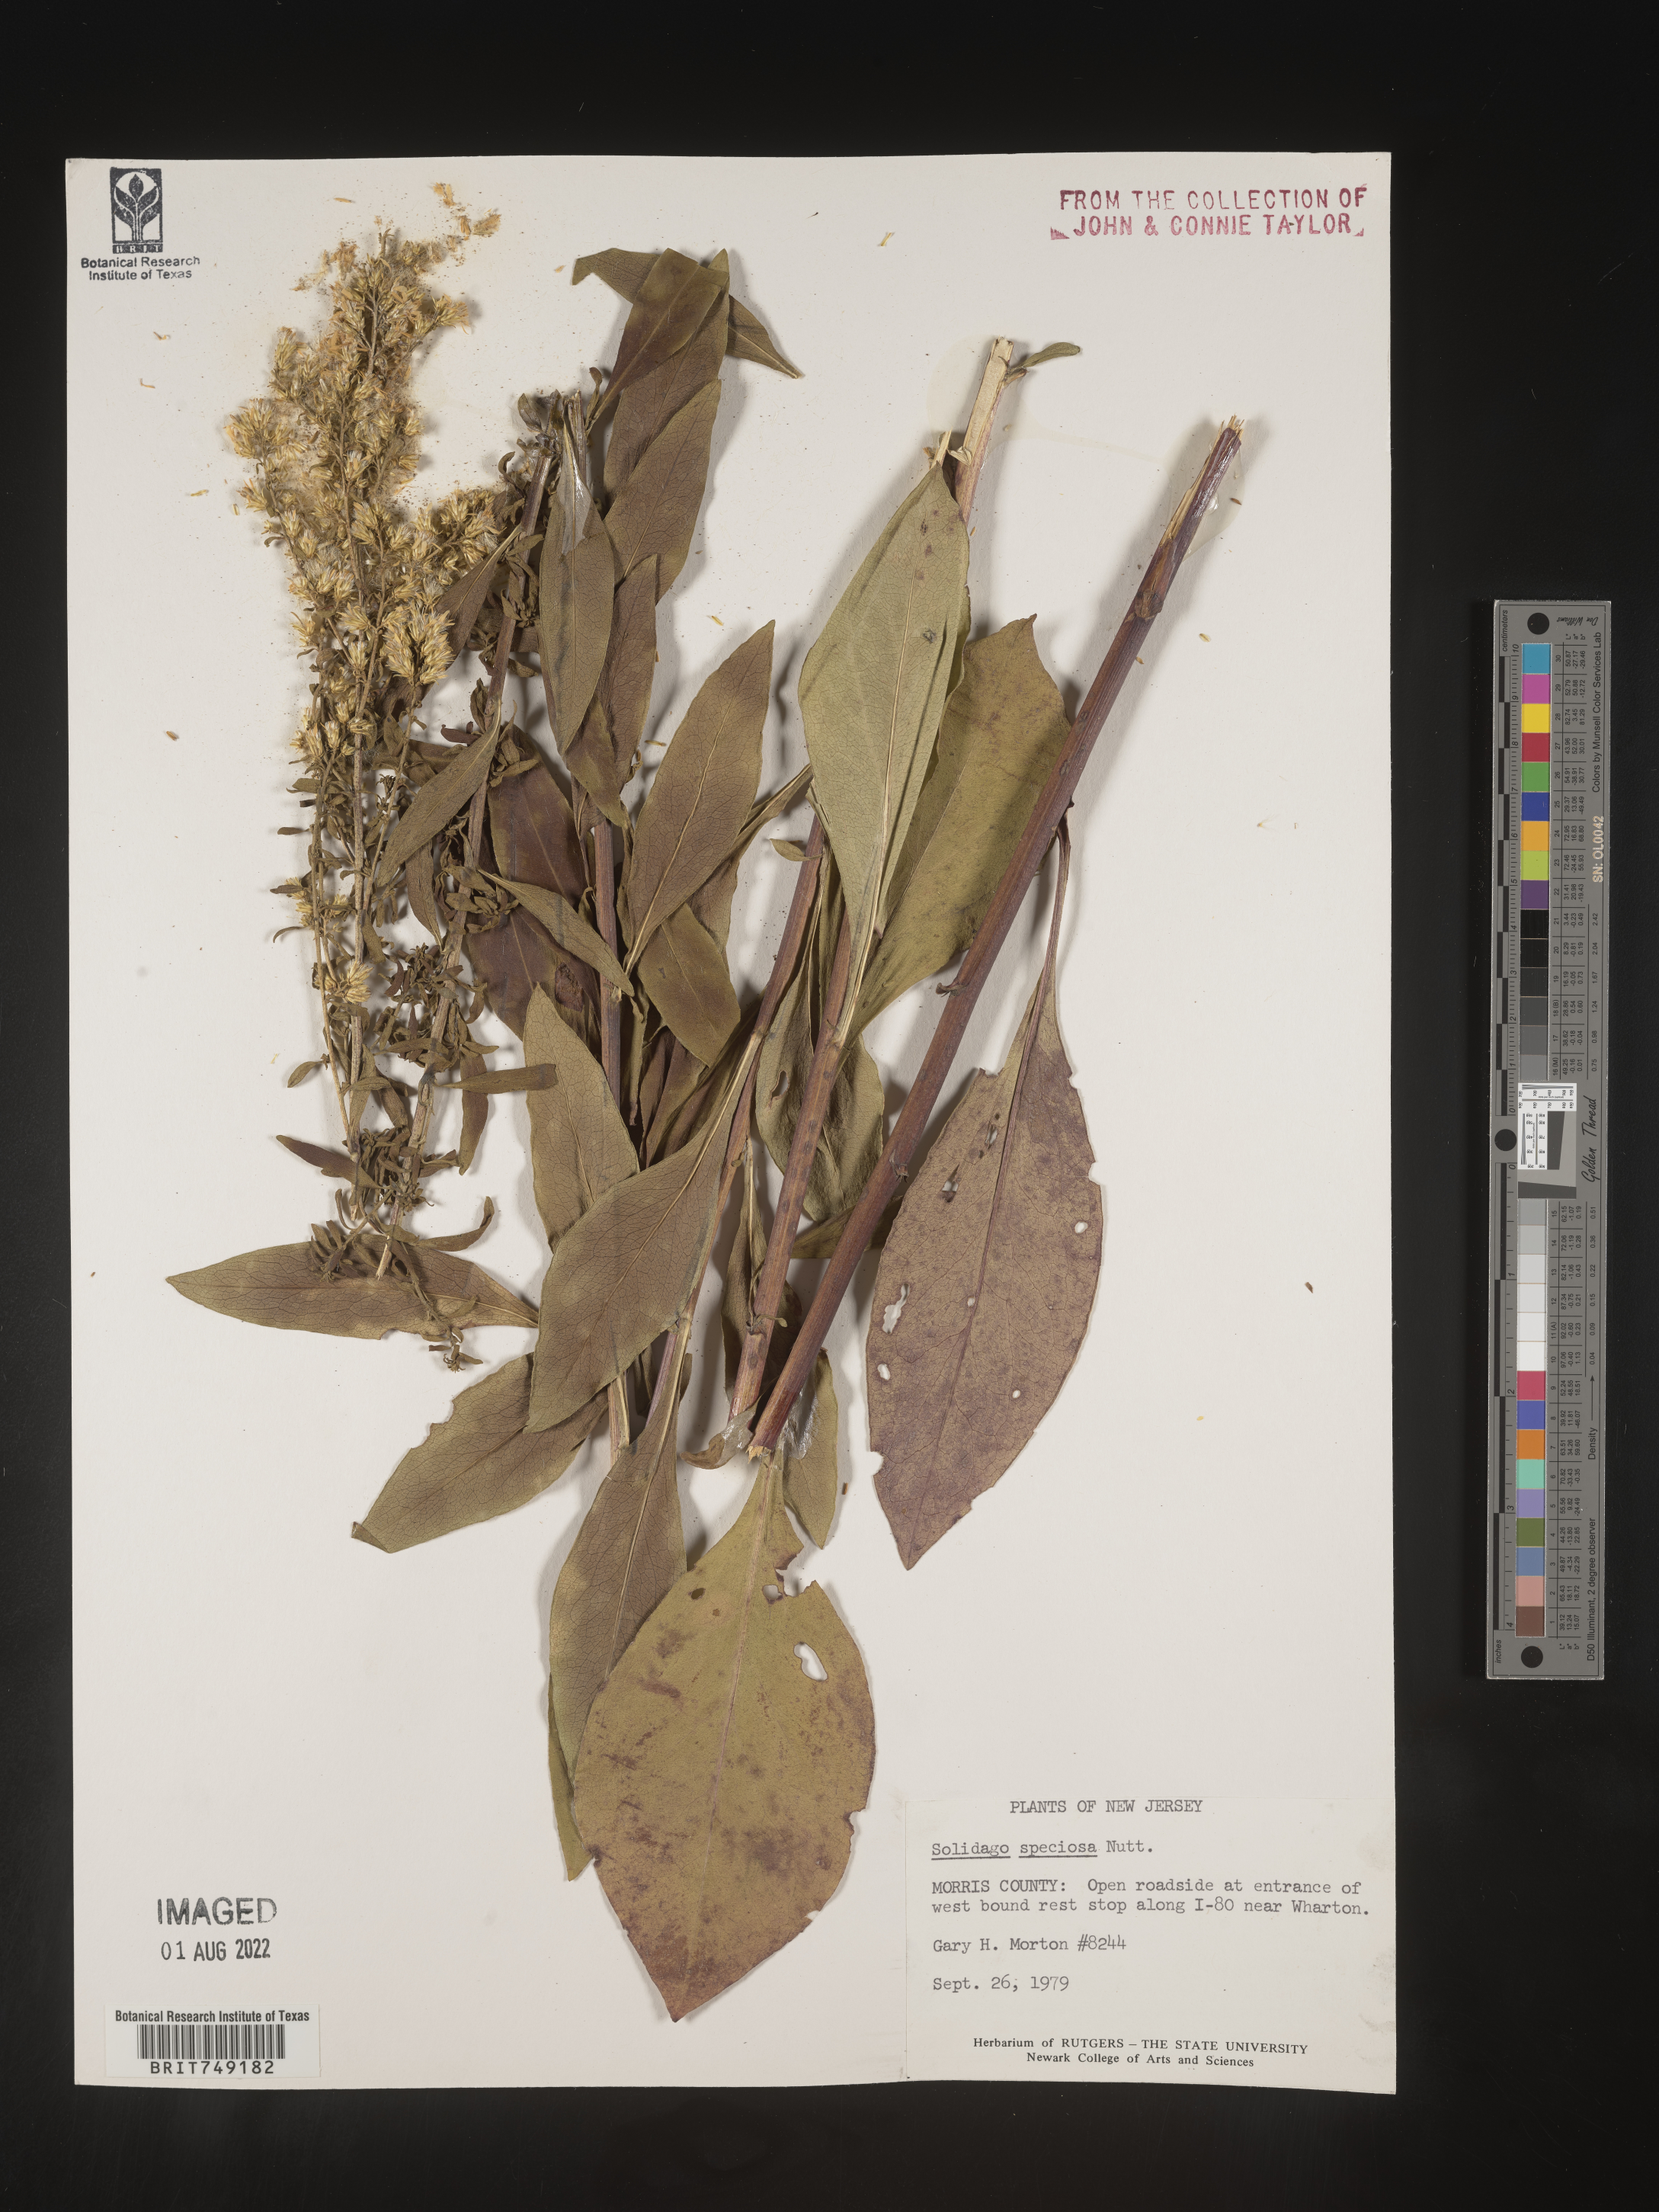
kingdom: Plantae
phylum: Tracheophyta
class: Magnoliopsida
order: Asterales
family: Asteraceae
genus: Solidago
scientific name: Solidago speciosa
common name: Showy goldenrod
